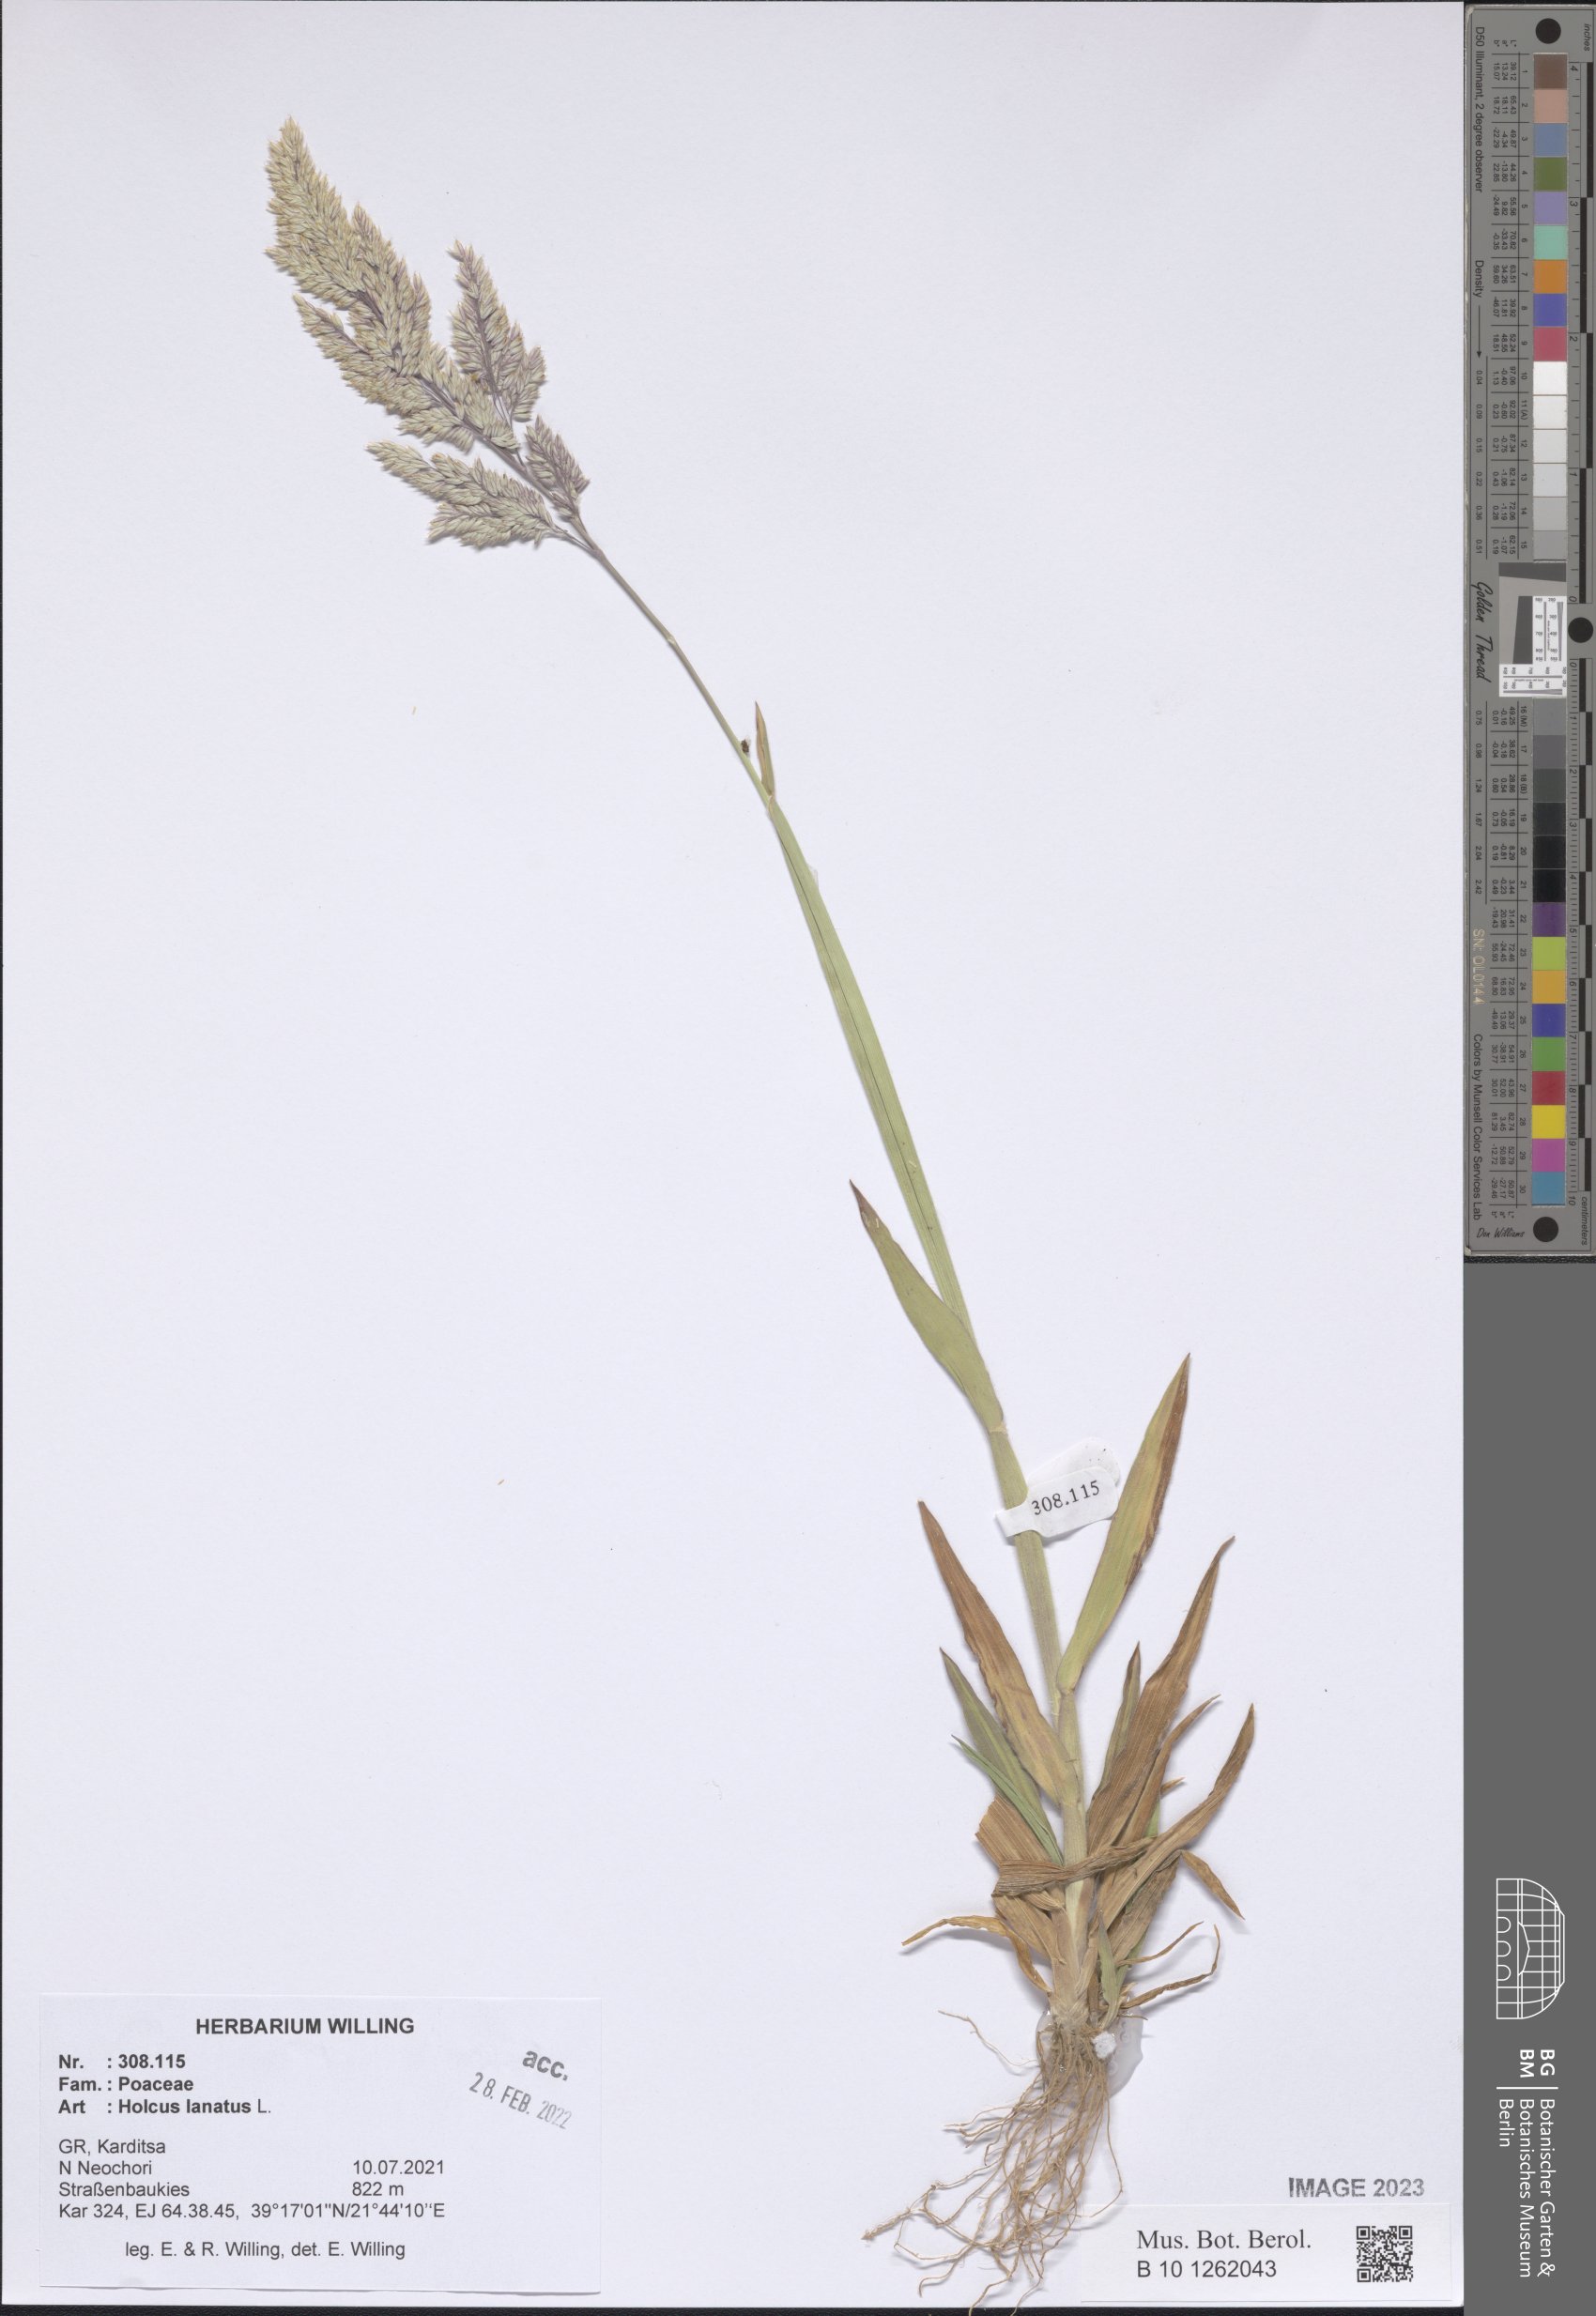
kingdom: Plantae
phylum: Tracheophyta
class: Liliopsida
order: Poales
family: Poaceae
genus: Holcus
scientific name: Holcus lanatus
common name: Yorkshire-fog
